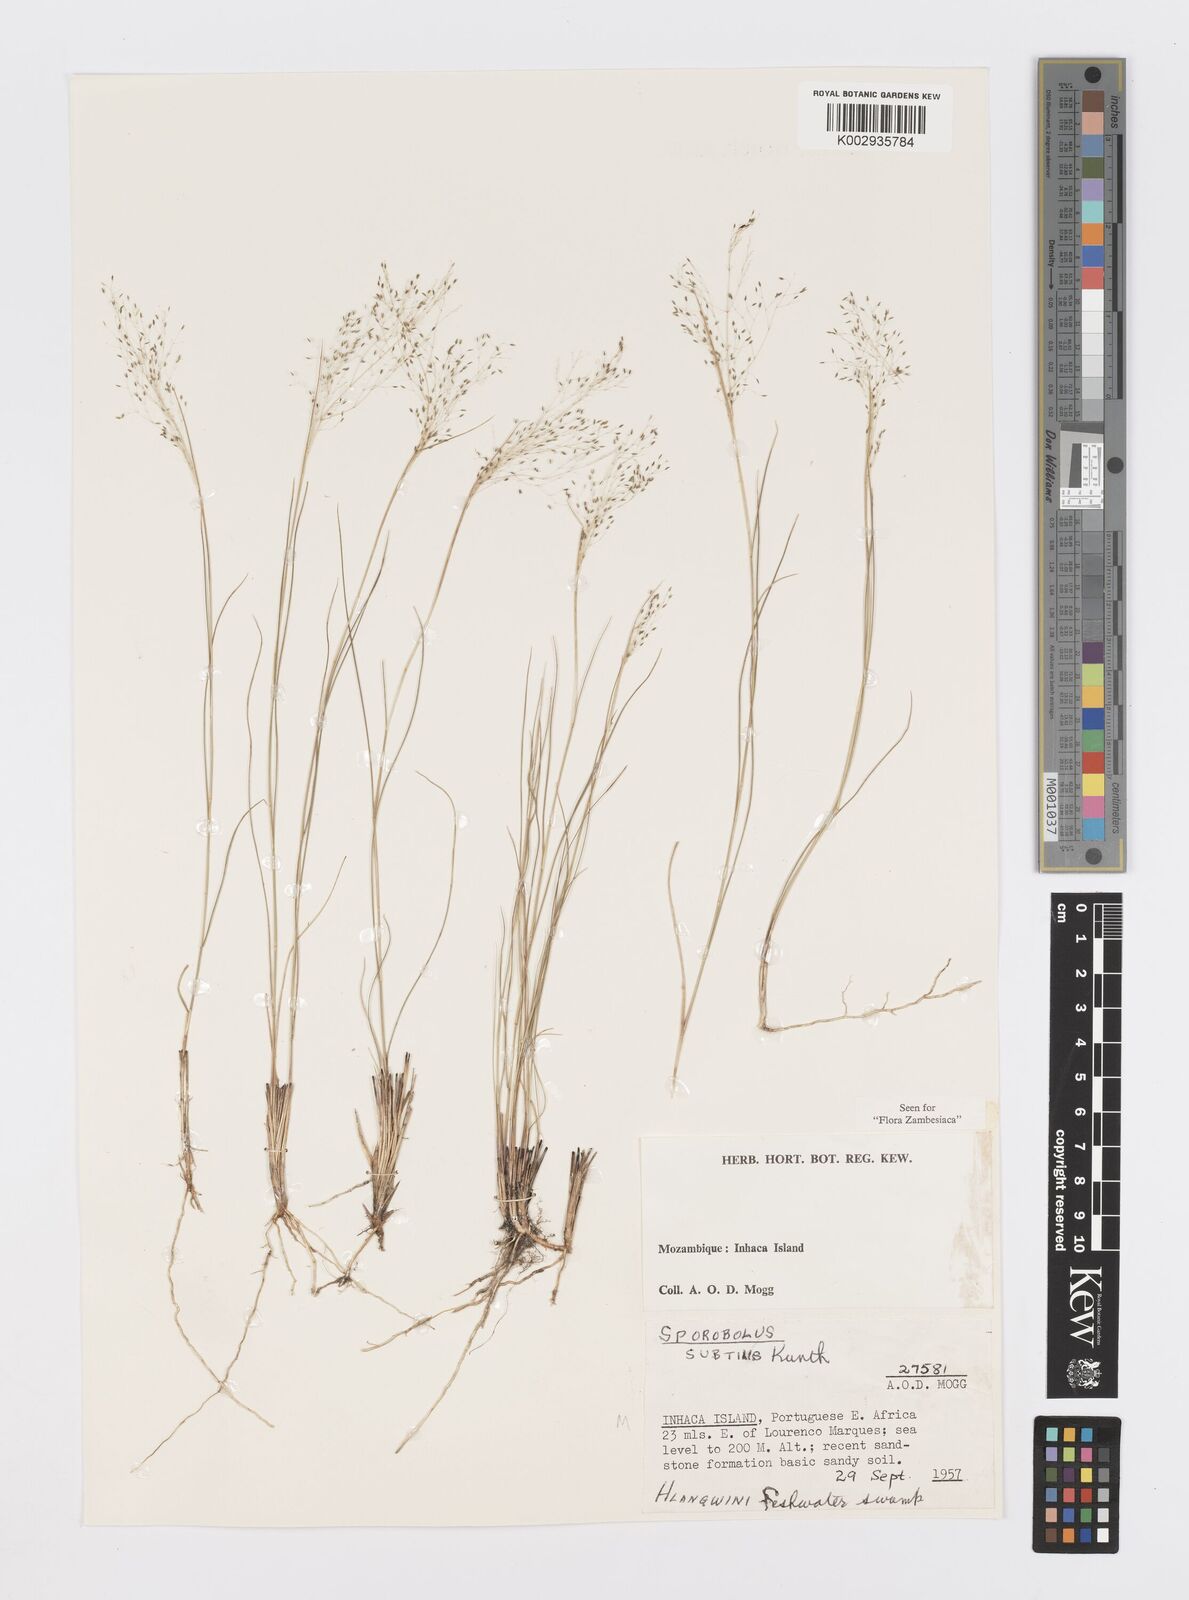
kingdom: Plantae
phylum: Tracheophyta
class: Liliopsida
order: Poales
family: Poaceae
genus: Sporobolus
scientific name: Sporobolus subtilis
